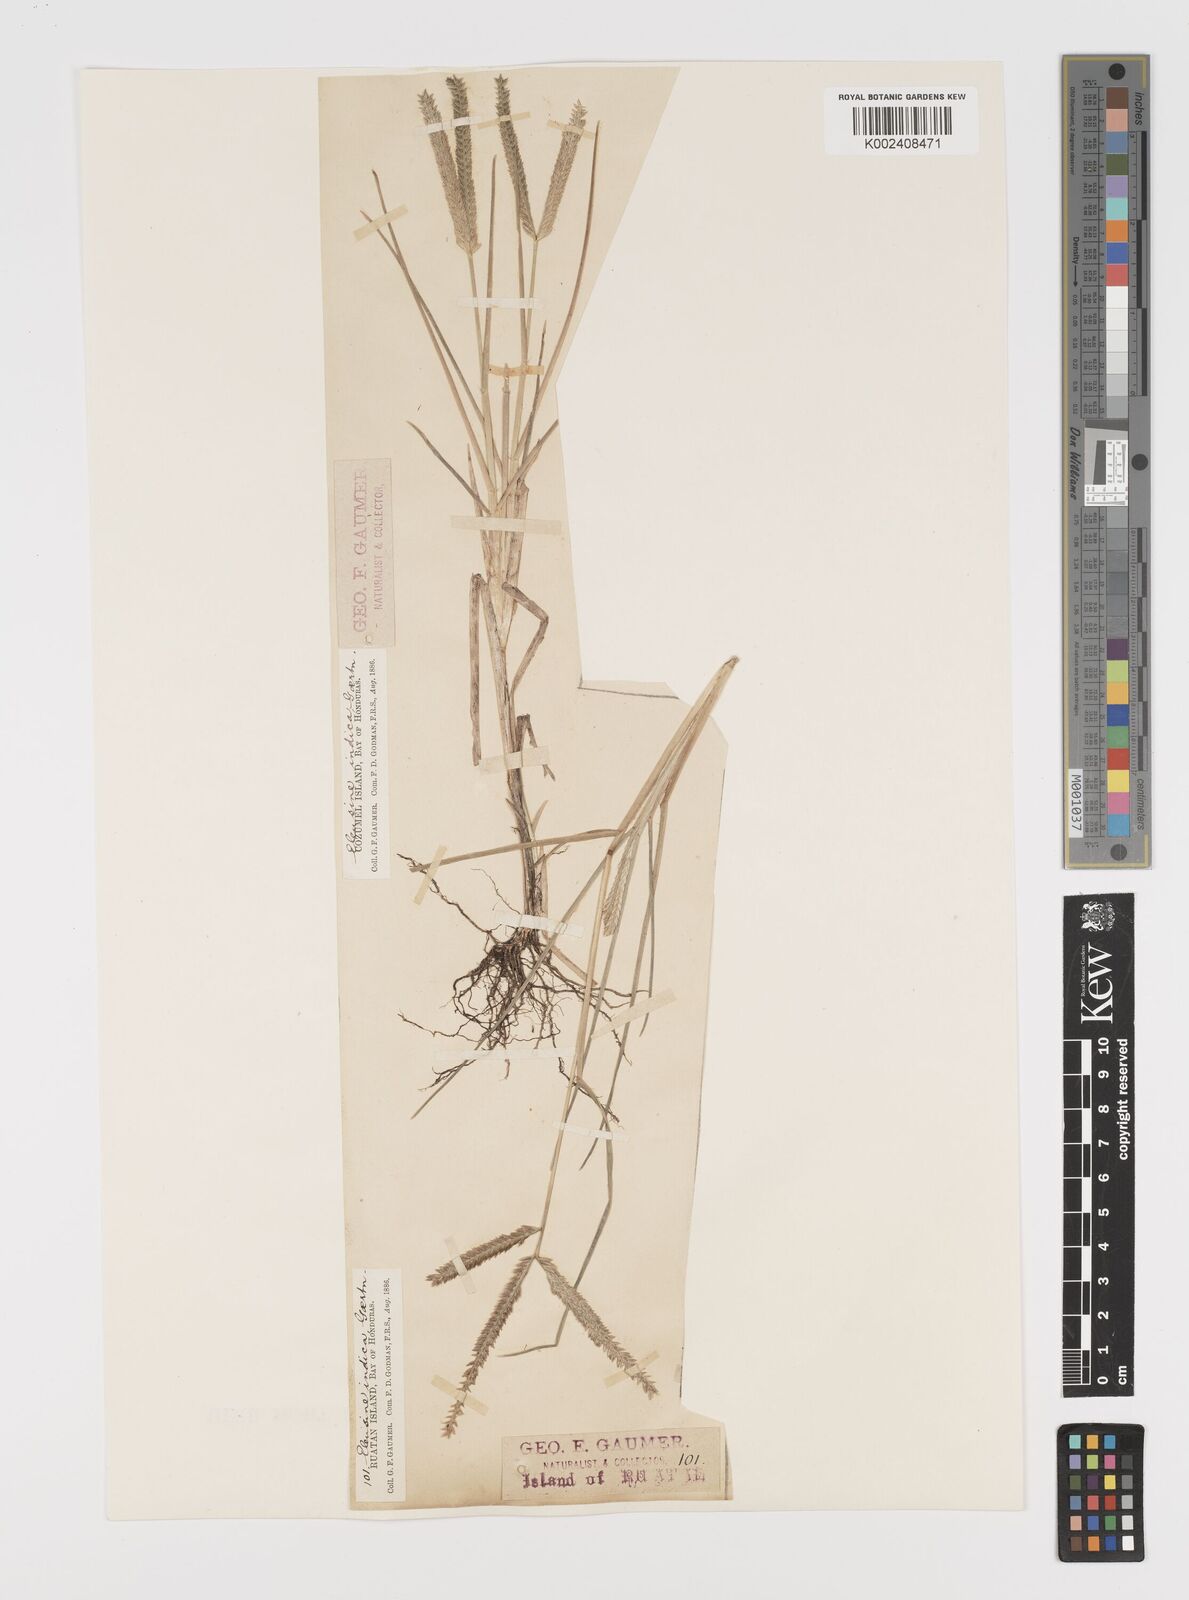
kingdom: Plantae
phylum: Tracheophyta
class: Liliopsida
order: Poales
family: Poaceae
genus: Eleusine
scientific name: Eleusine indica
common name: Yard-grass
